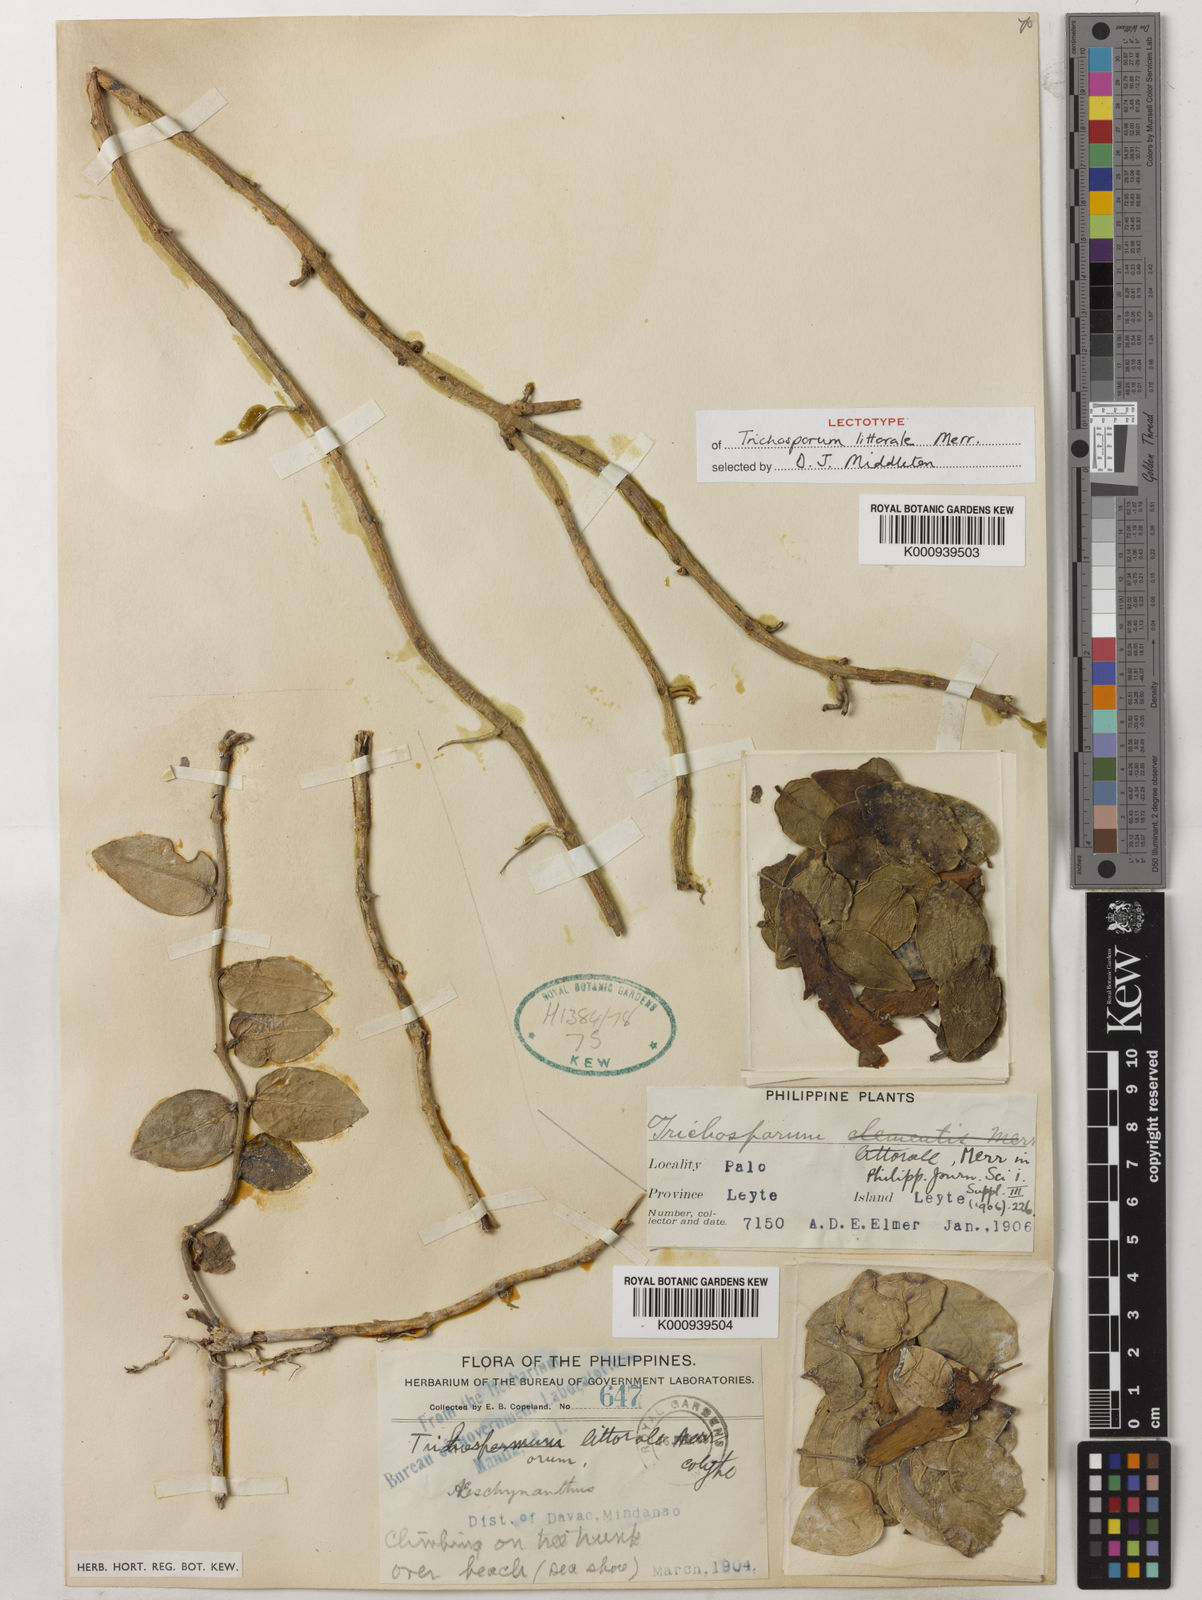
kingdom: Plantae
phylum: Tracheophyta
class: Magnoliopsida
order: Lamiales
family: Gesneriaceae
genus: Aeschynanthus
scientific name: Aeschynanthus littoralis
